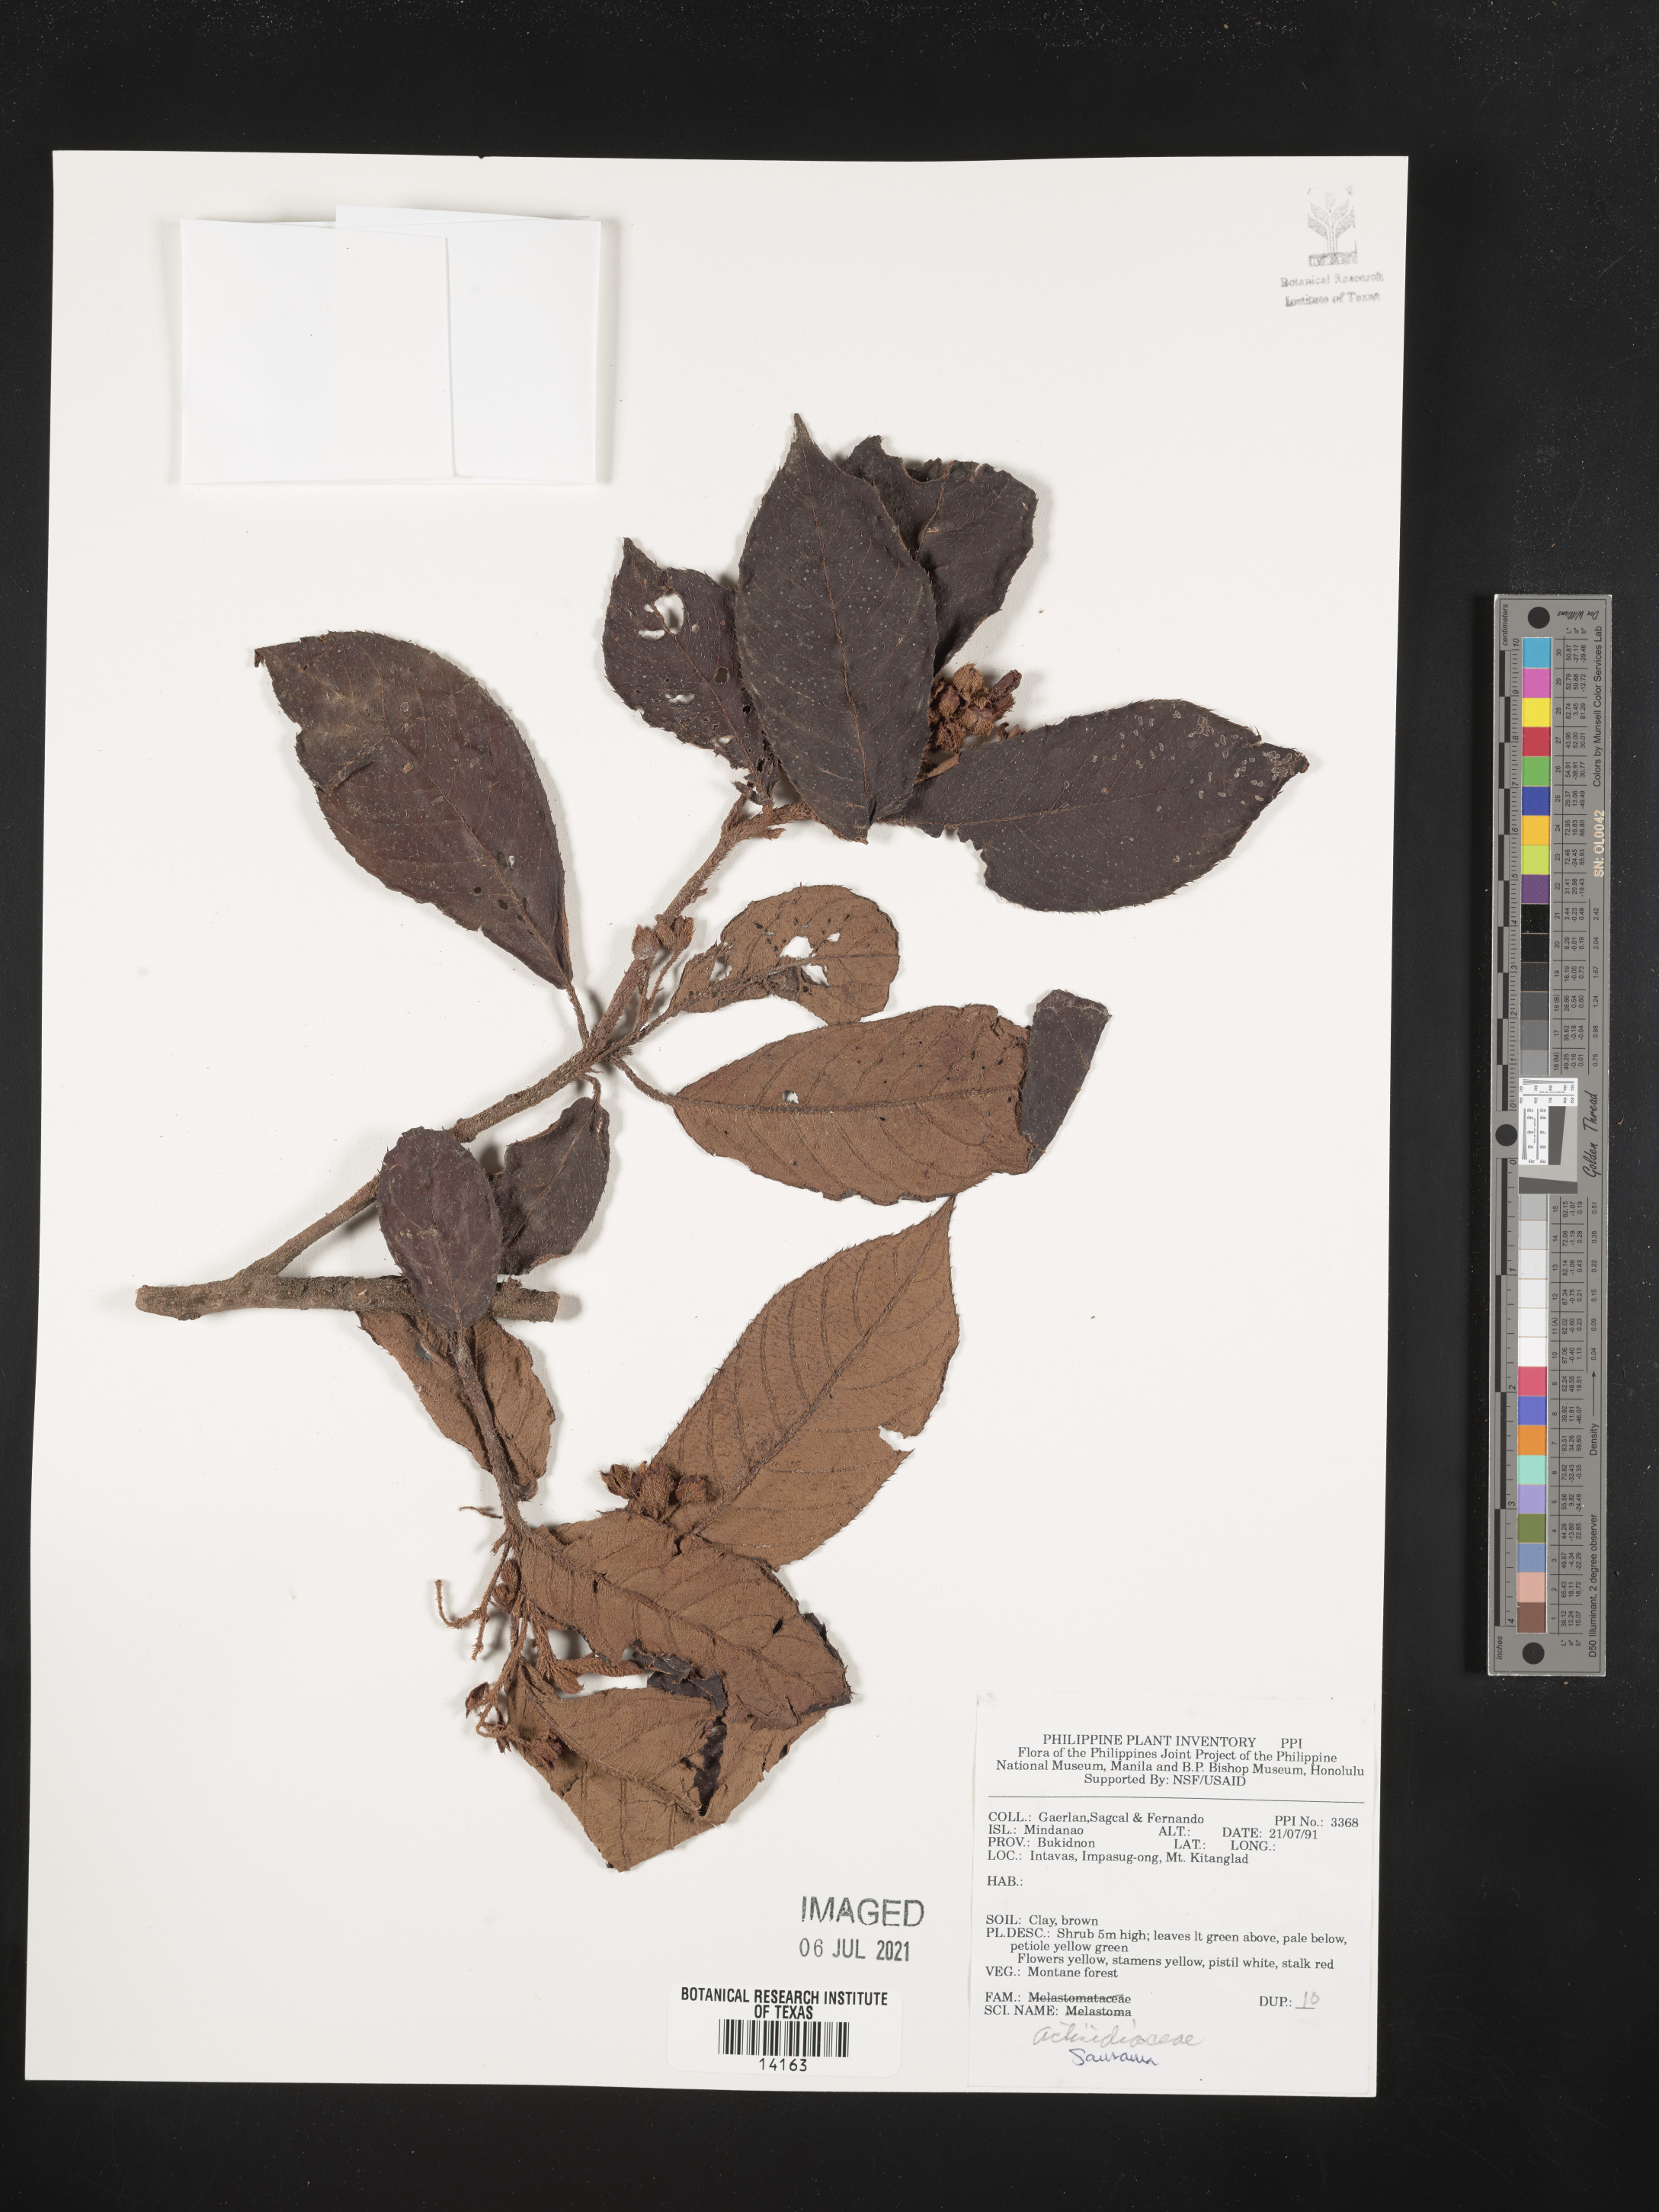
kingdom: Plantae
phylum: Tracheophyta
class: Magnoliopsida
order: Ericales
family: Actinidiaceae
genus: Saurauia
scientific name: Saurauia
